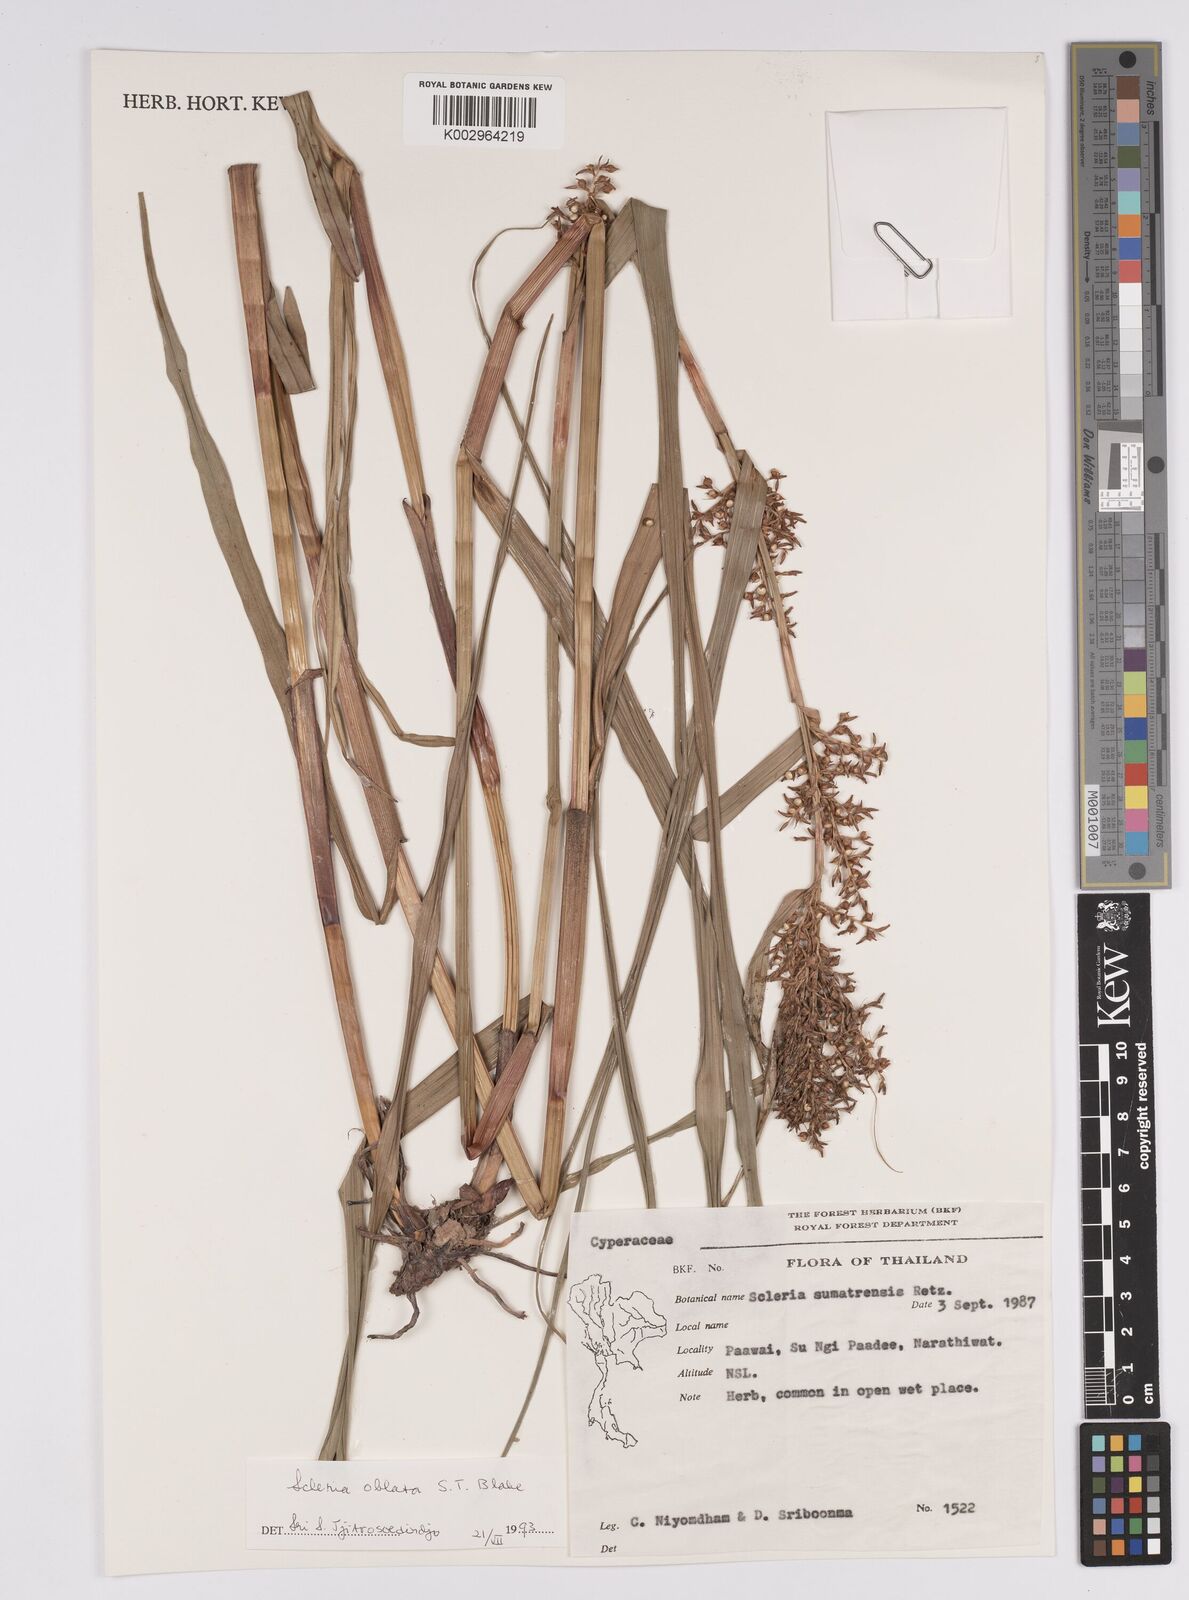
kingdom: Plantae
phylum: Tracheophyta
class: Liliopsida
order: Poales
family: Cyperaceae
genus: Scleria
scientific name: Scleria oblata
